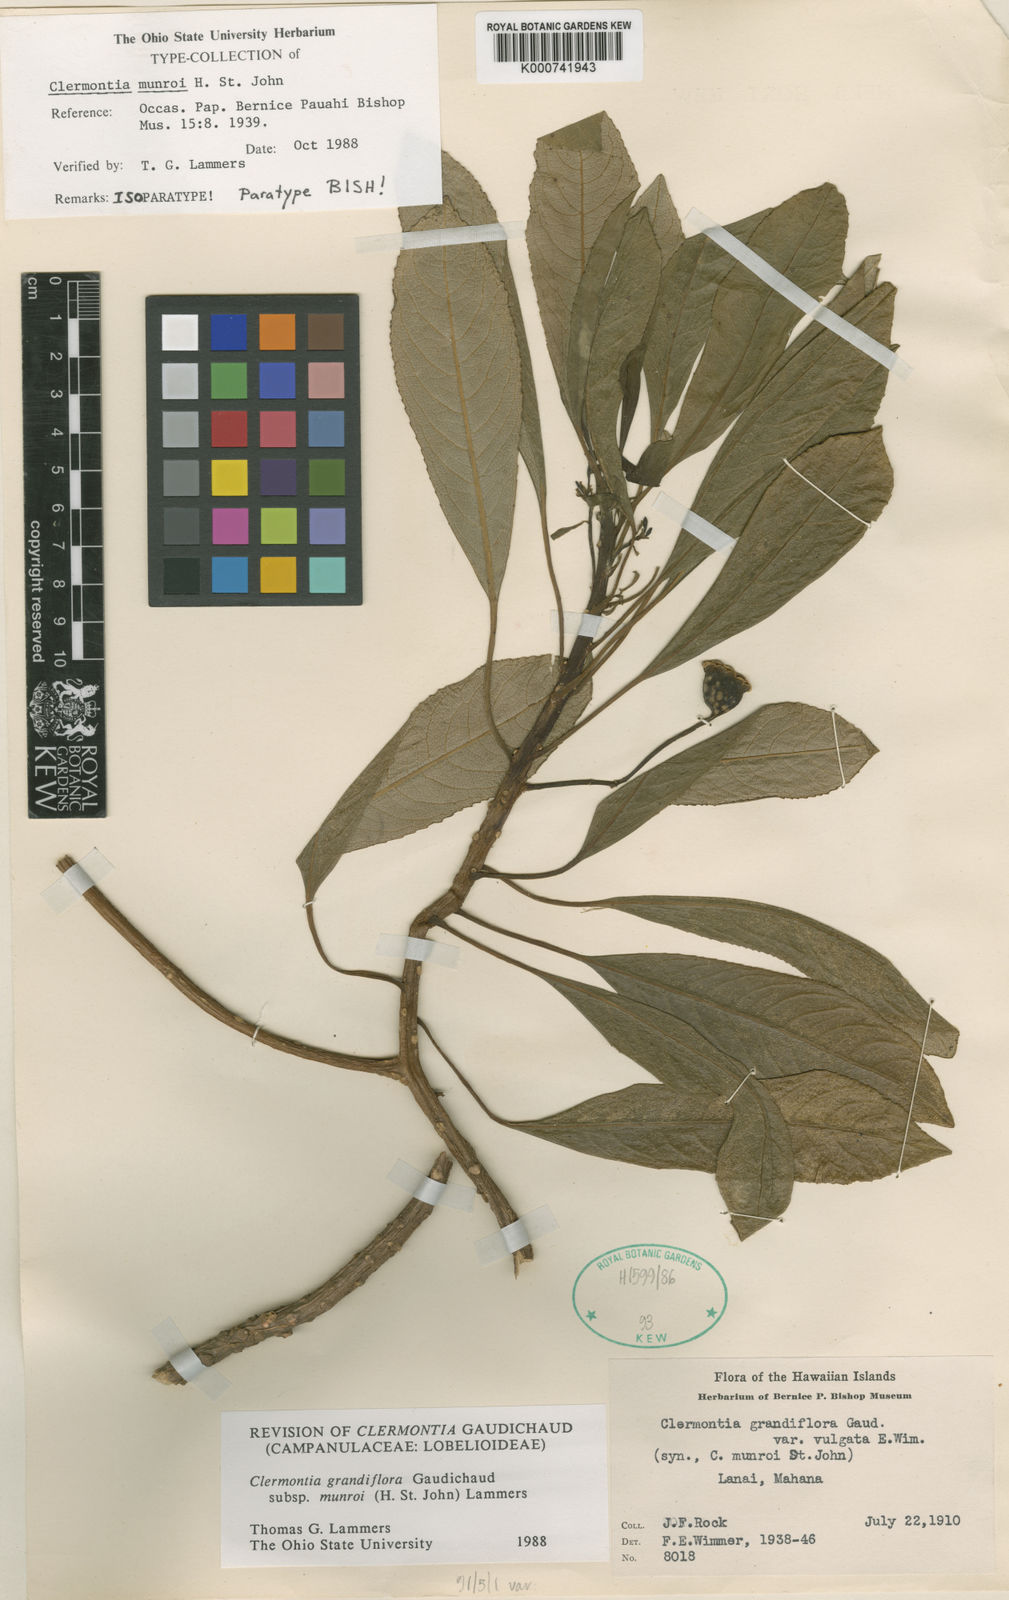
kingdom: Plantae
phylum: Tracheophyta
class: Magnoliopsida
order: Asterales
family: Campanulaceae
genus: Clermontia
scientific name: Clermontia grandiflora
